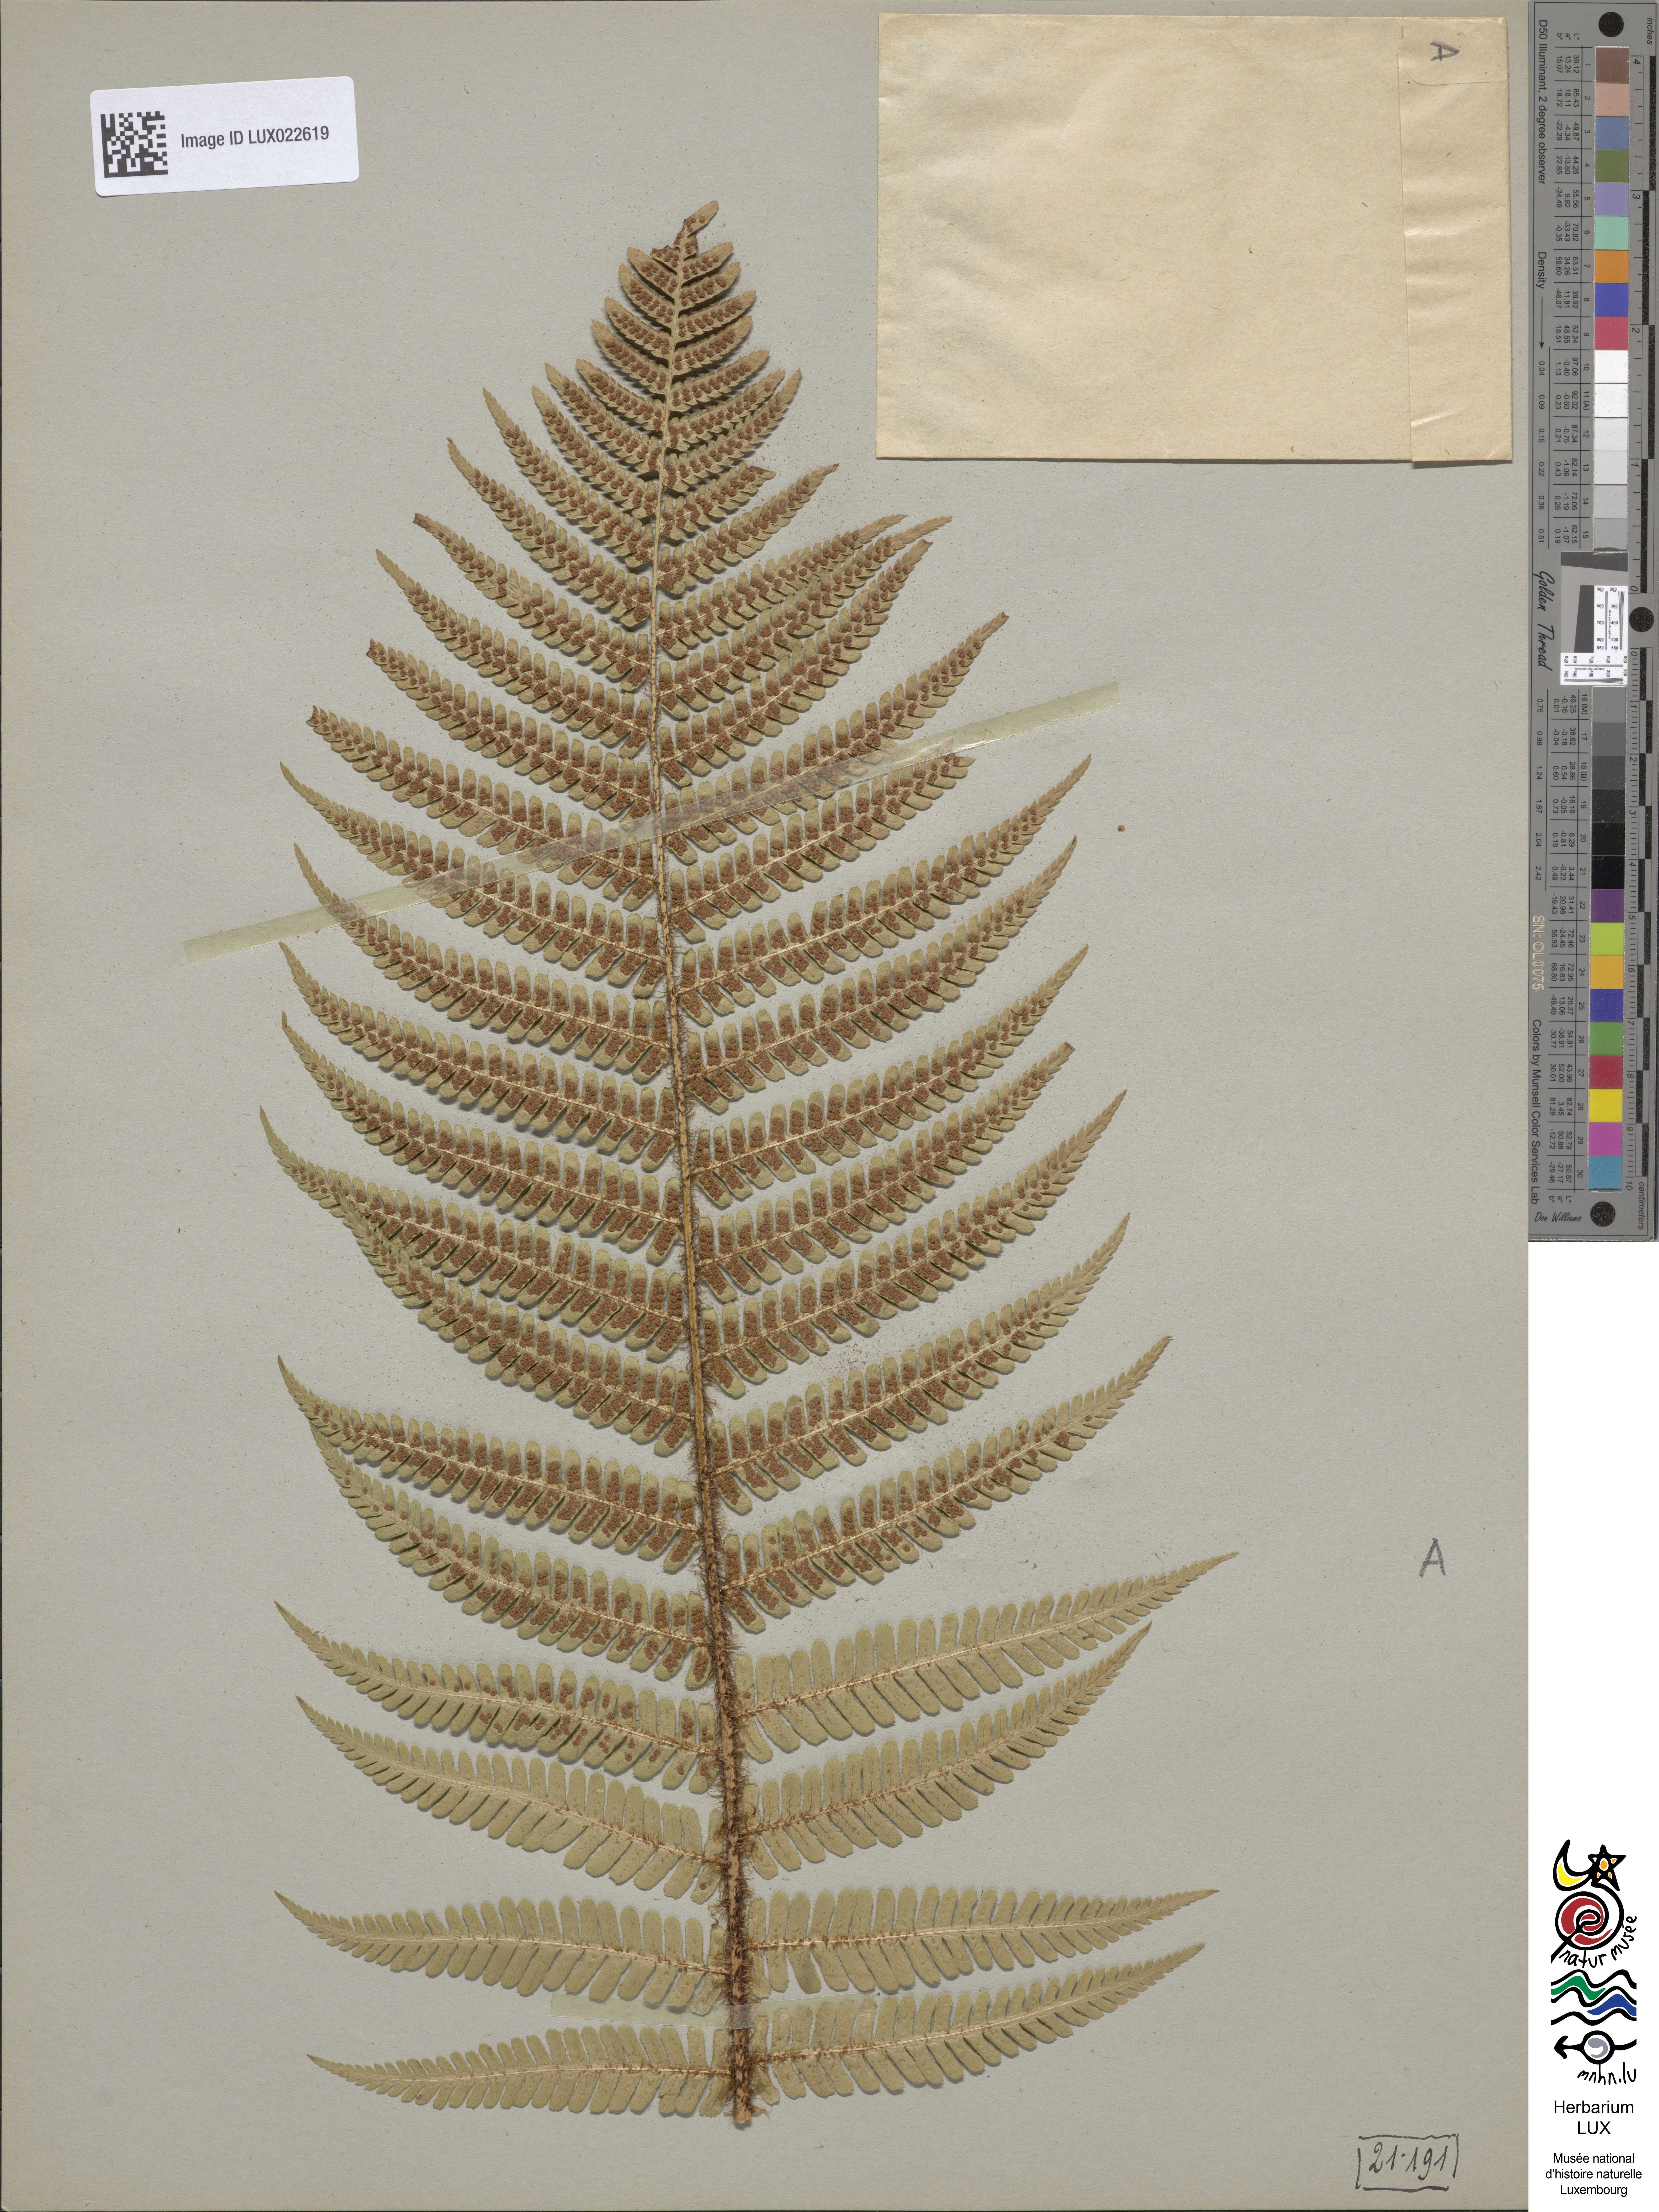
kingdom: Plantae
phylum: Tracheophyta
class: Polypodiopsida
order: Polypodiales
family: Dryopteridaceae
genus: Dryopteris
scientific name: Dryopteris borreri
